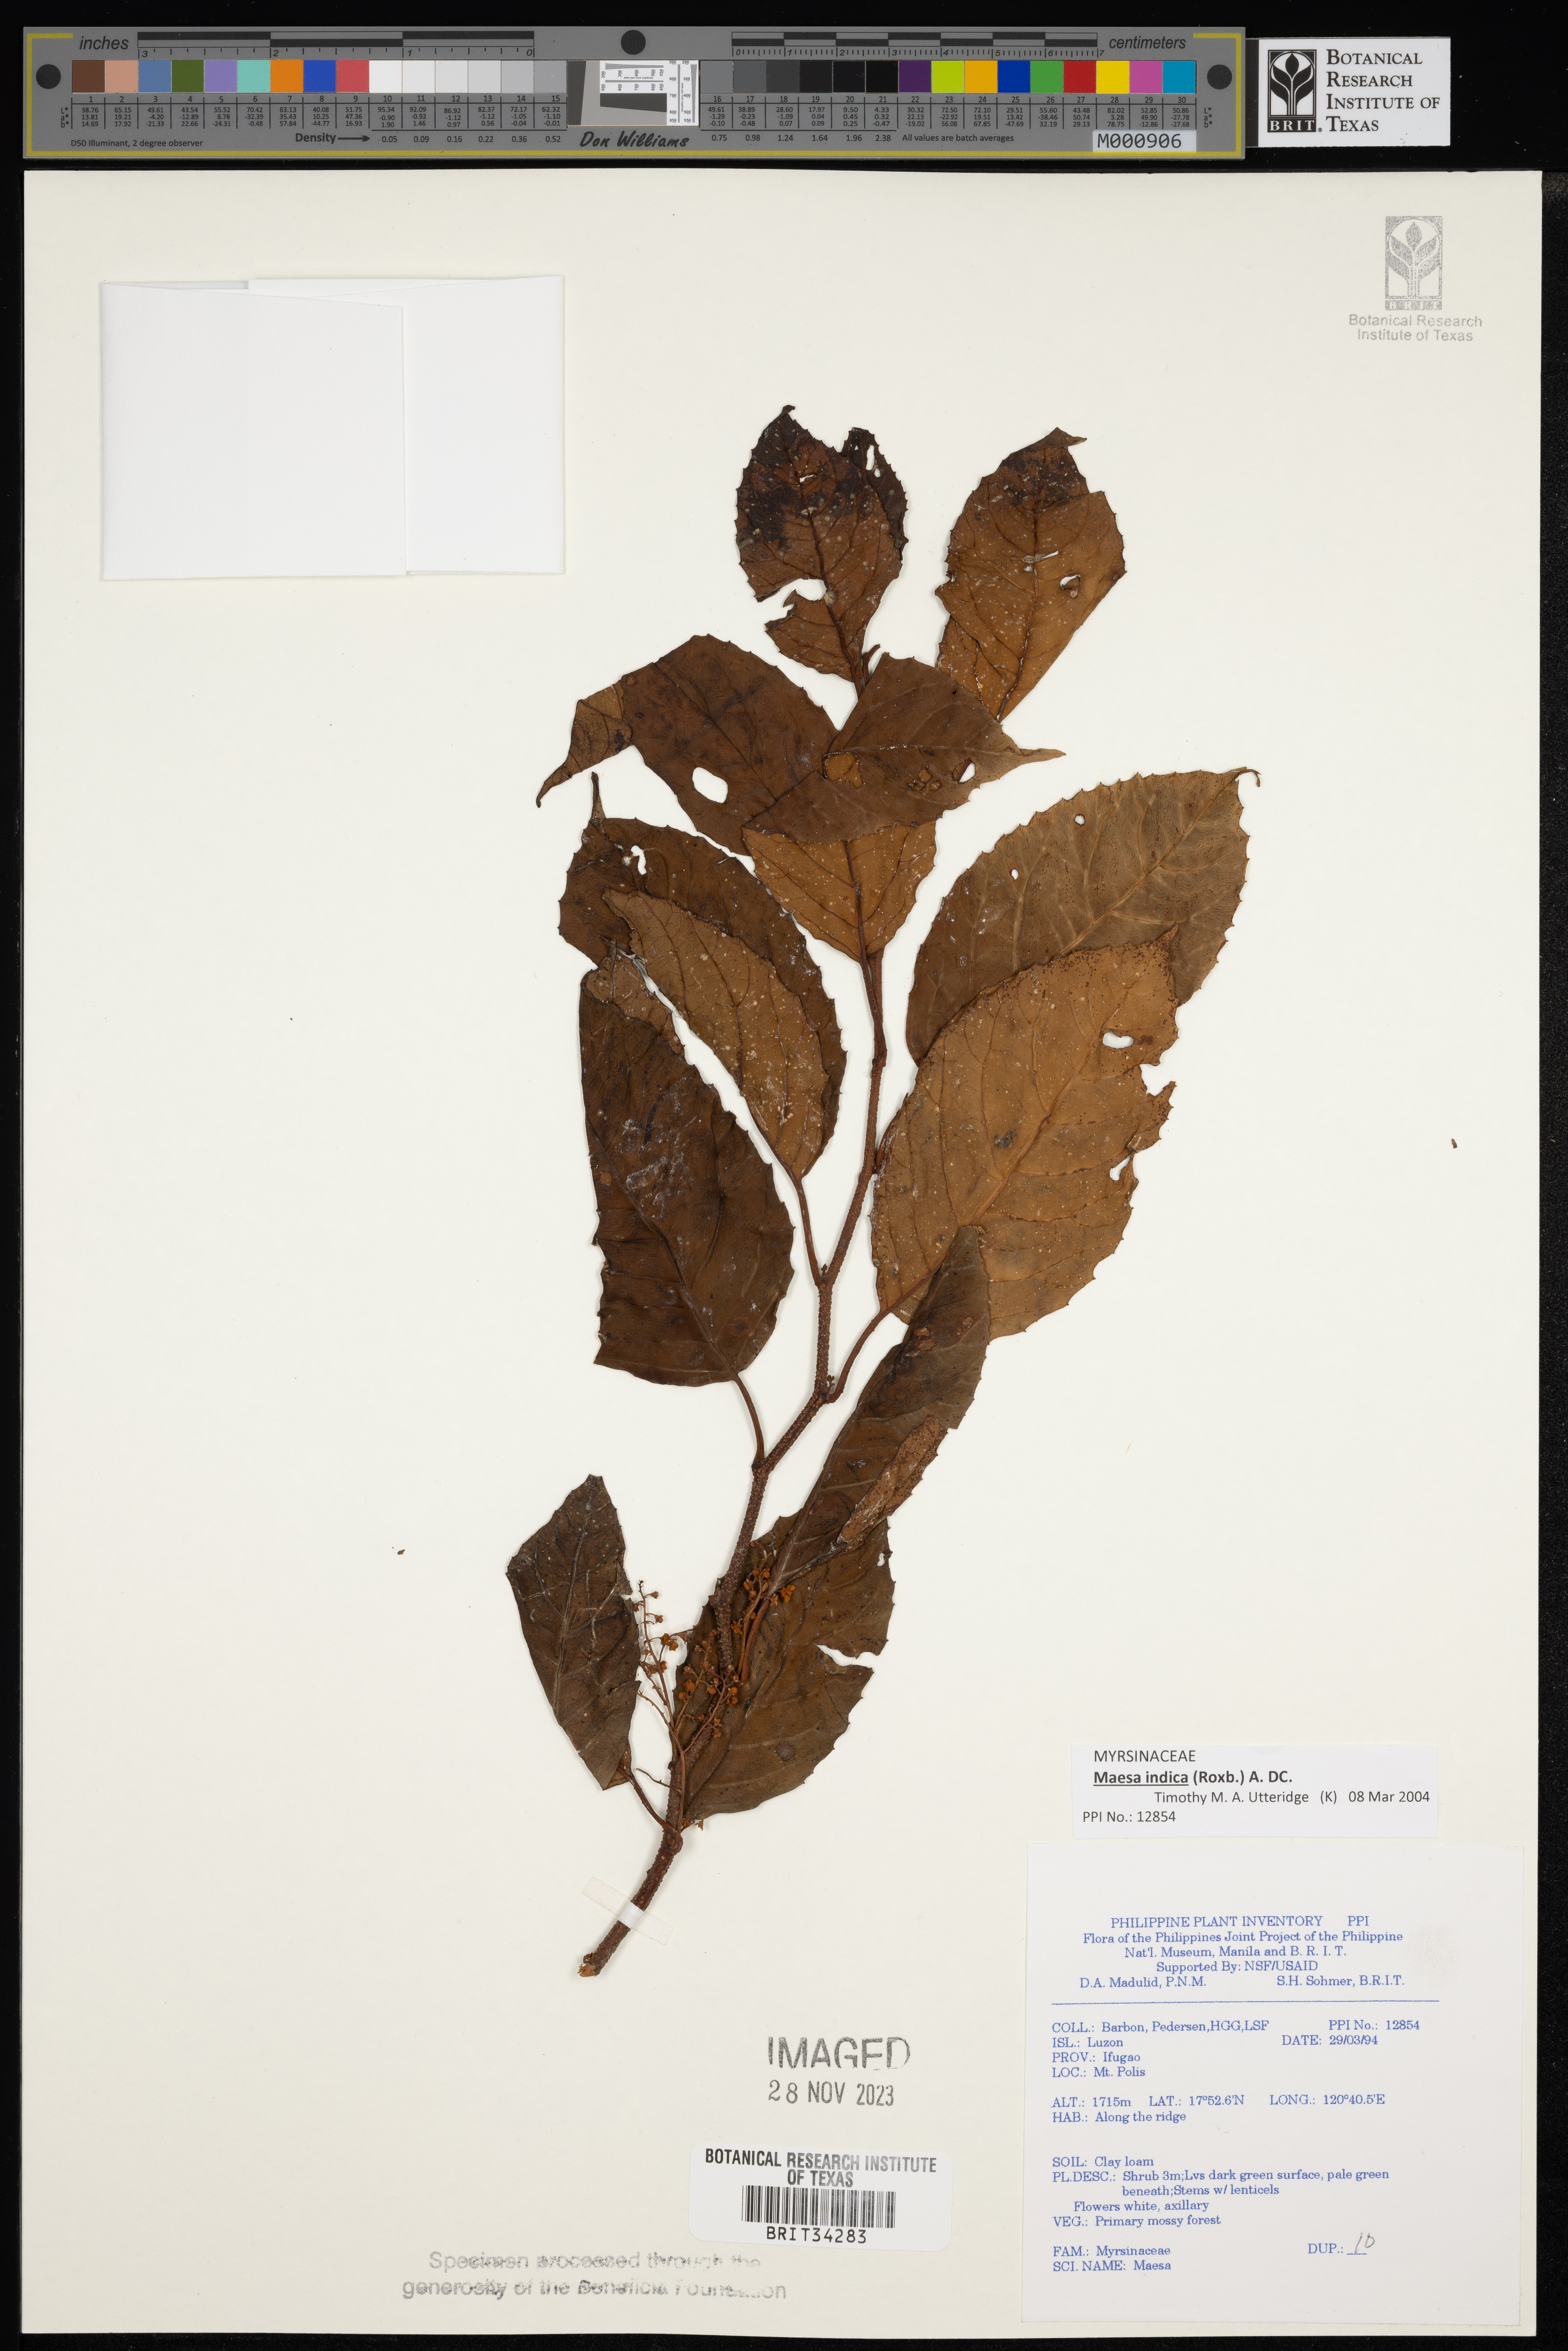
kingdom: Plantae
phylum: Tracheophyta
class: Magnoliopsida
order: Ericales
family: Primulaceae
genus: Maesa
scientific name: Maesa
